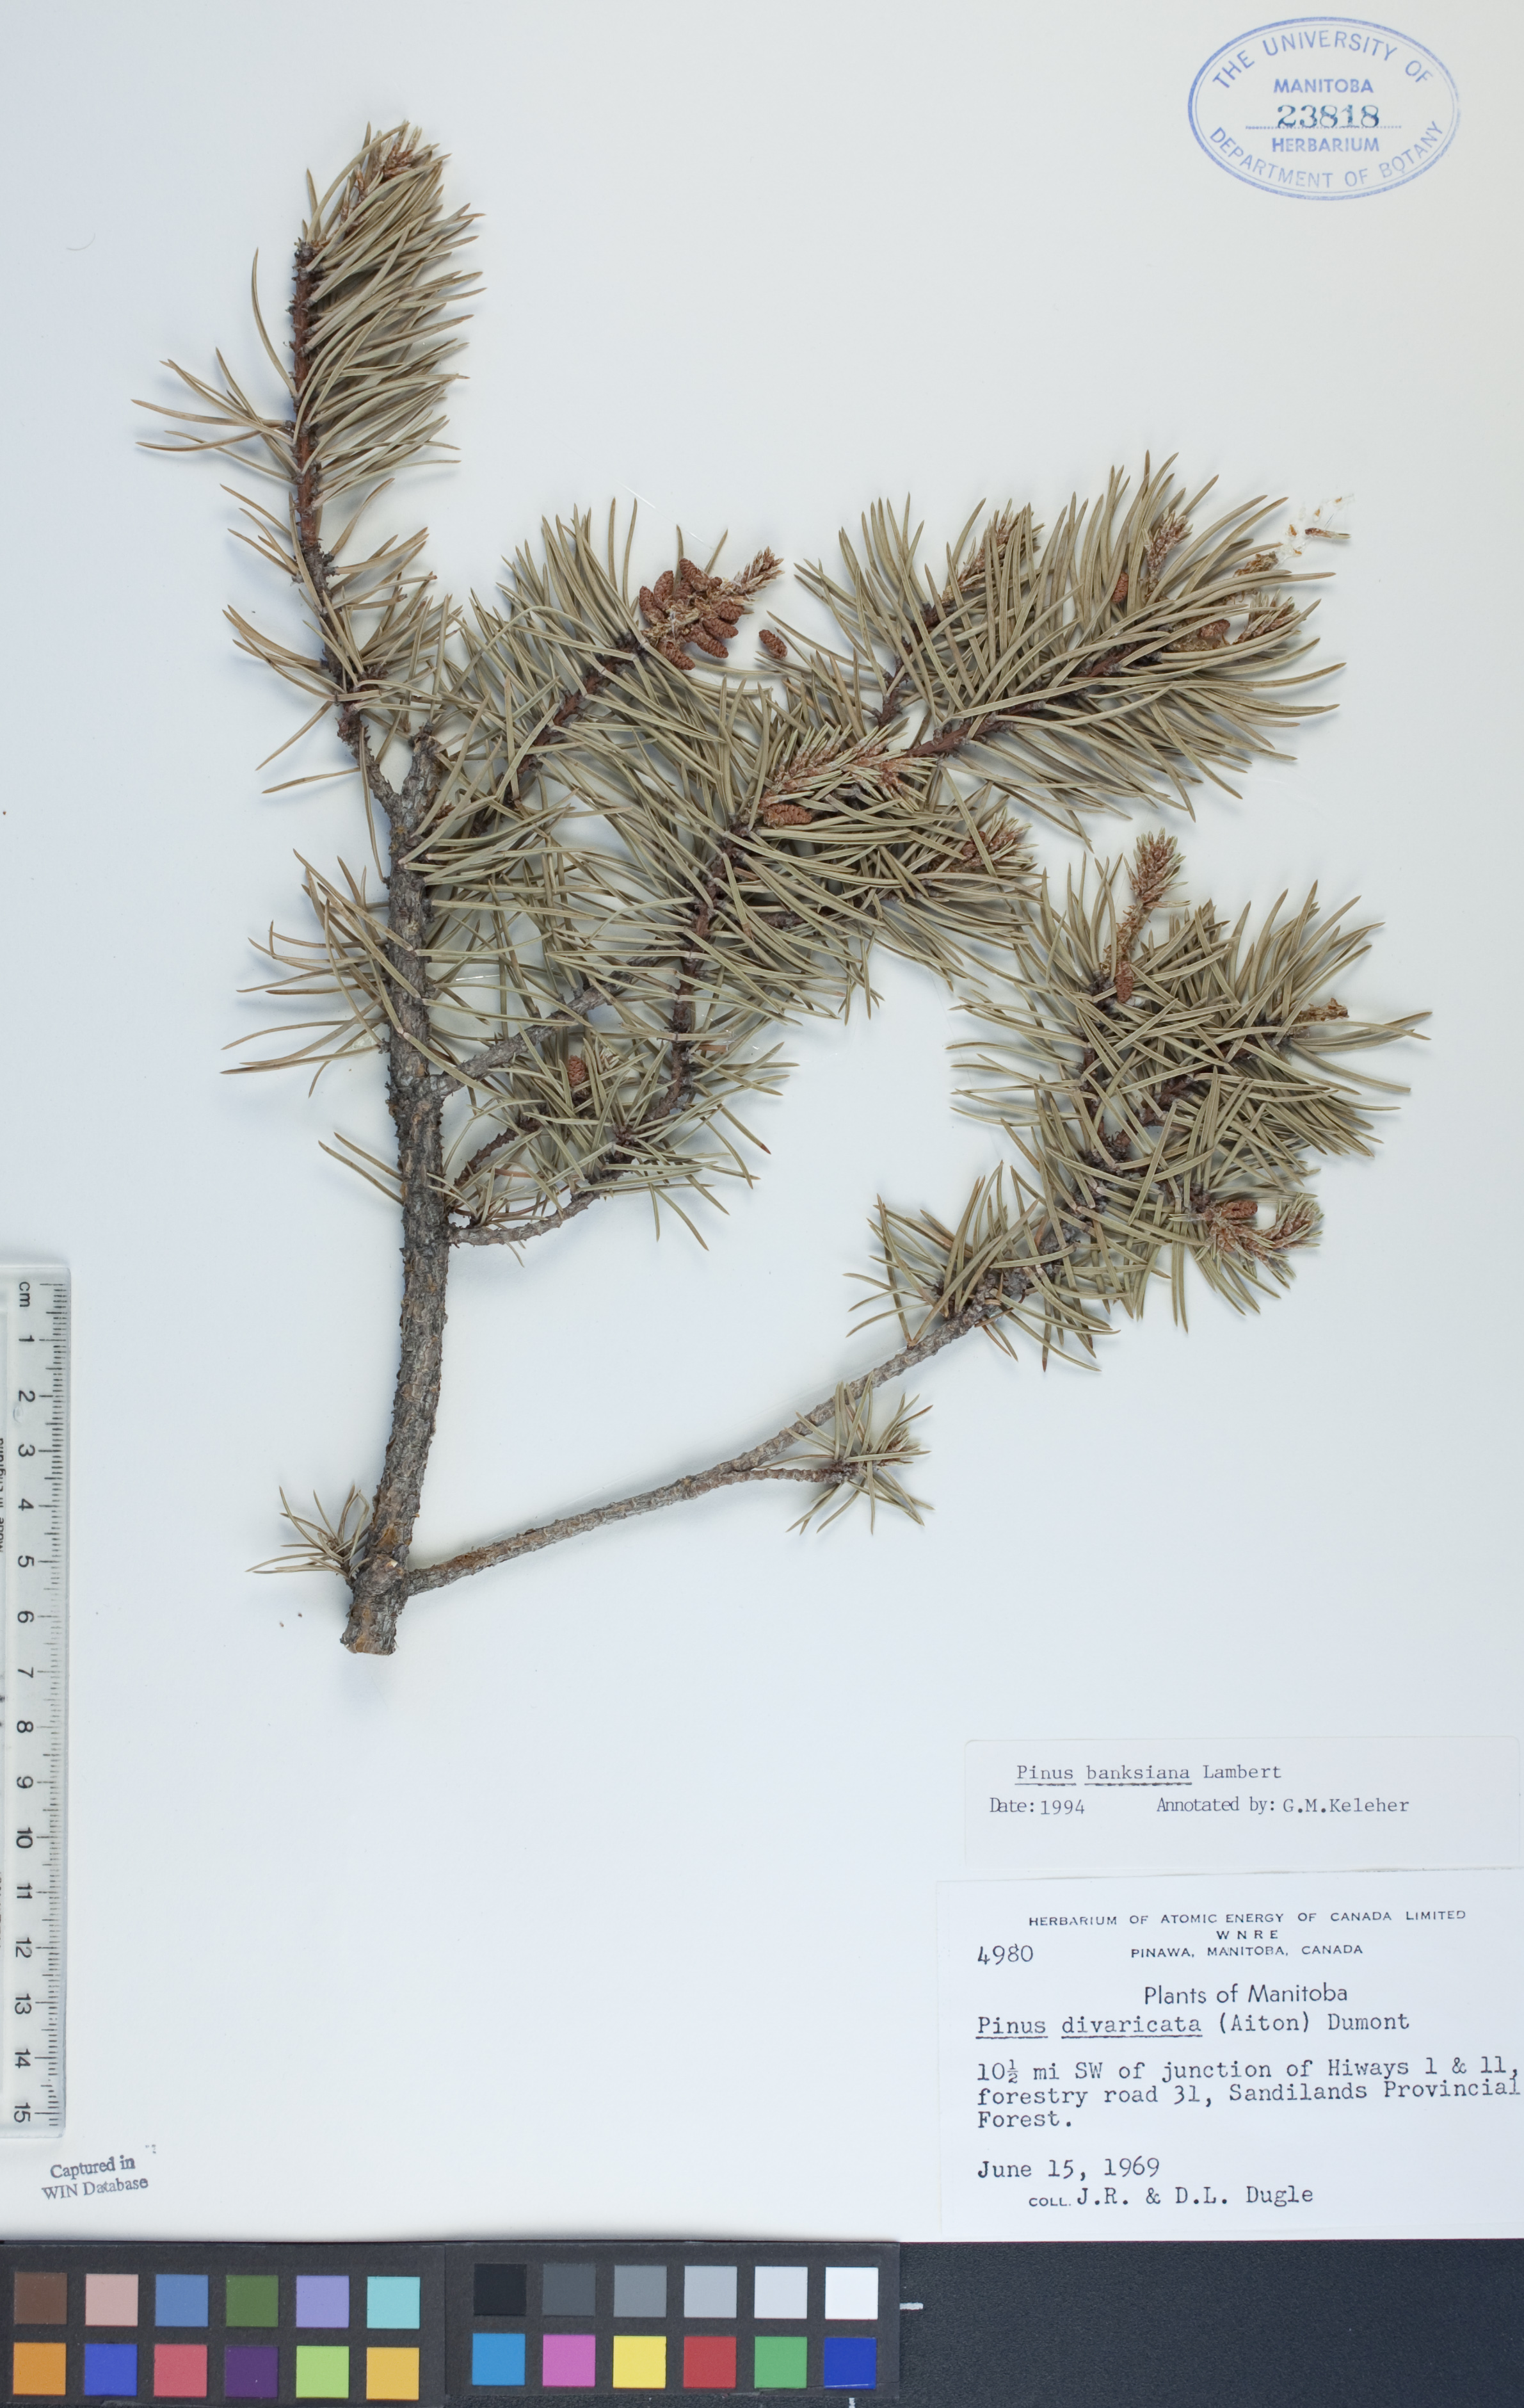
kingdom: Plantae
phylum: Tracheophyta
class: Pinopsida
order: Pinales
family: Pinaceae
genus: Pinus
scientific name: Pinus banksiana
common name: Jack pine
